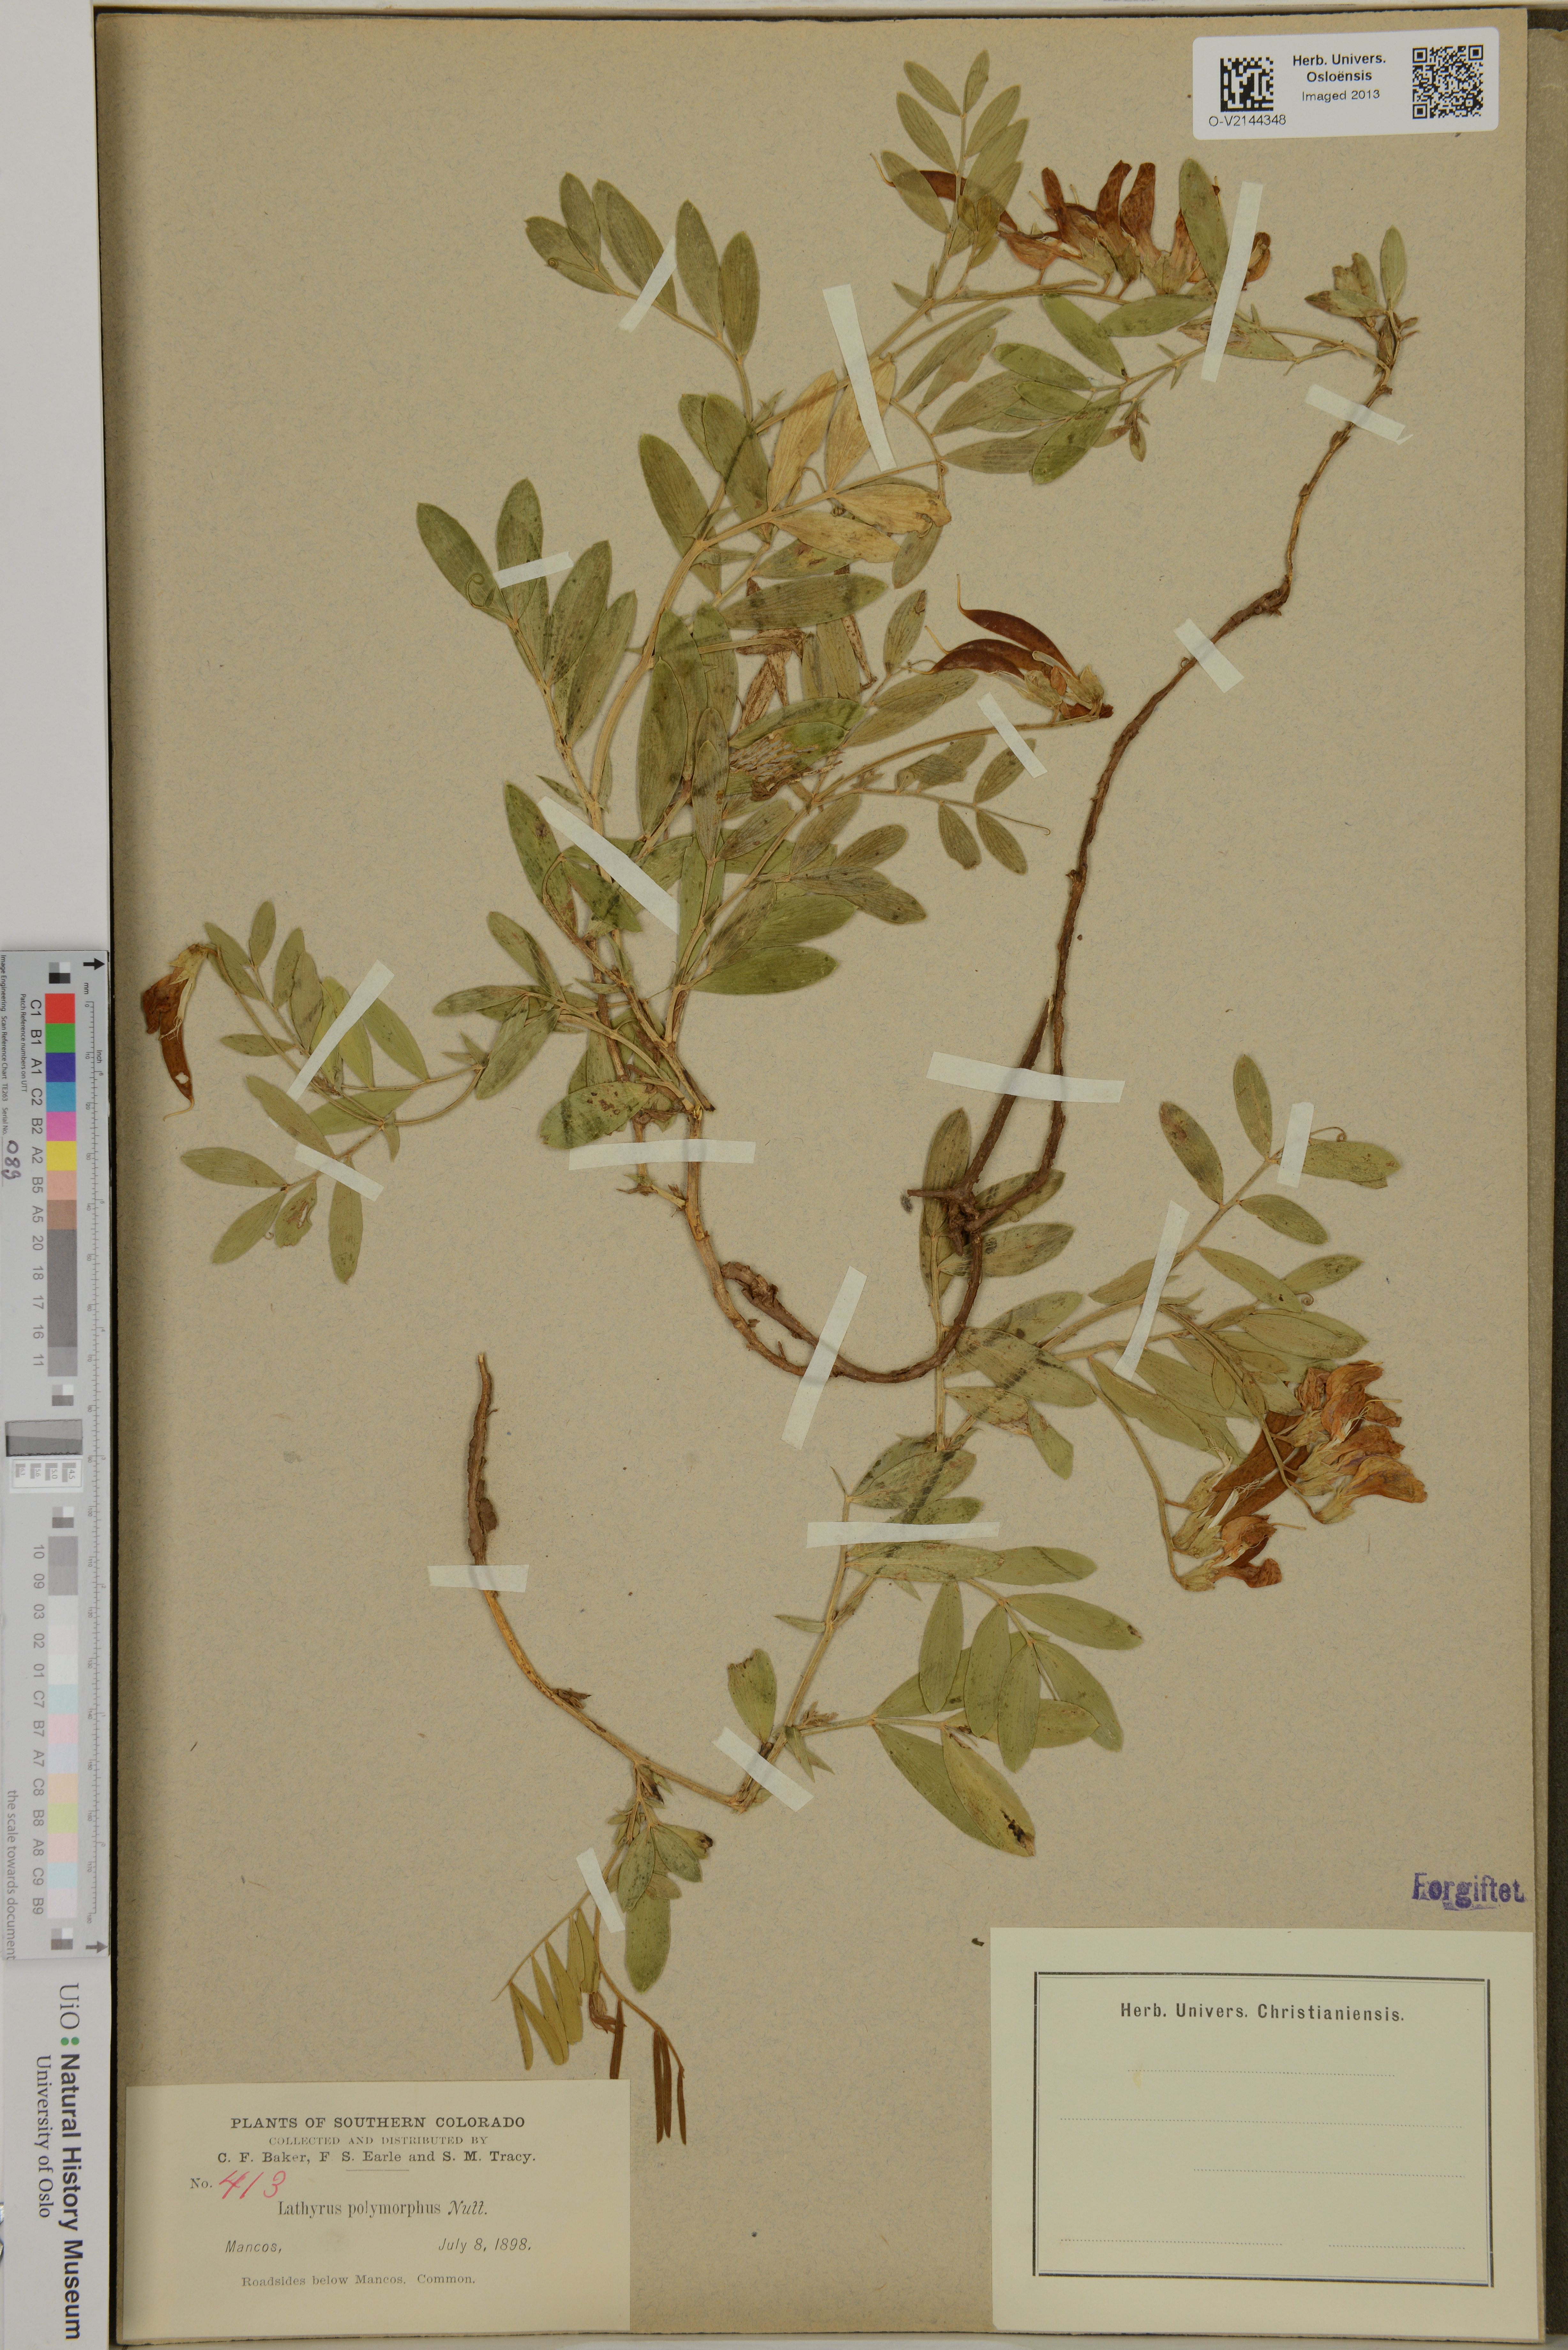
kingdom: Plantae
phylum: Tracheophyta
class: Magnoliopsida
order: Fabales
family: Fabaceae
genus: Lathyrus
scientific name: Lathyrus
